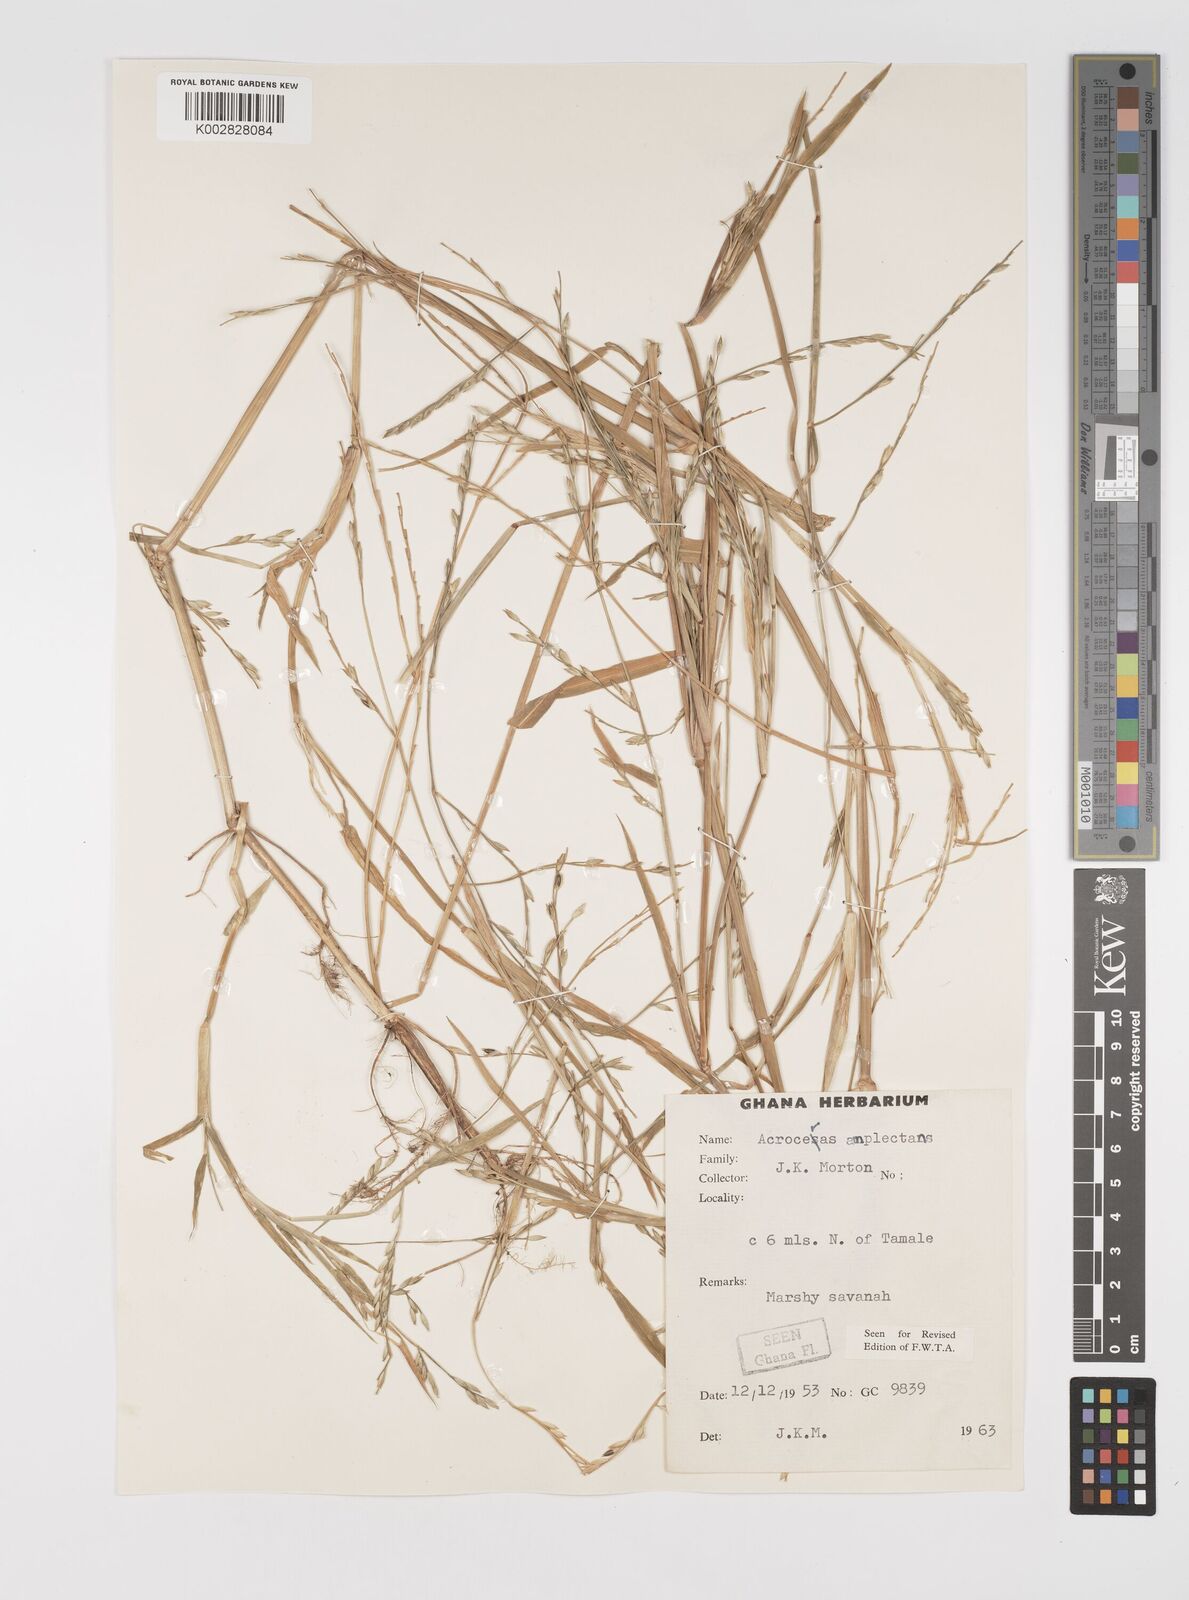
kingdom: Plantae
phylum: Tracheophyta
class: Liliopsida
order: Poales
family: Poaceae
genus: Acroceras
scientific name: Acroceras amplectens
